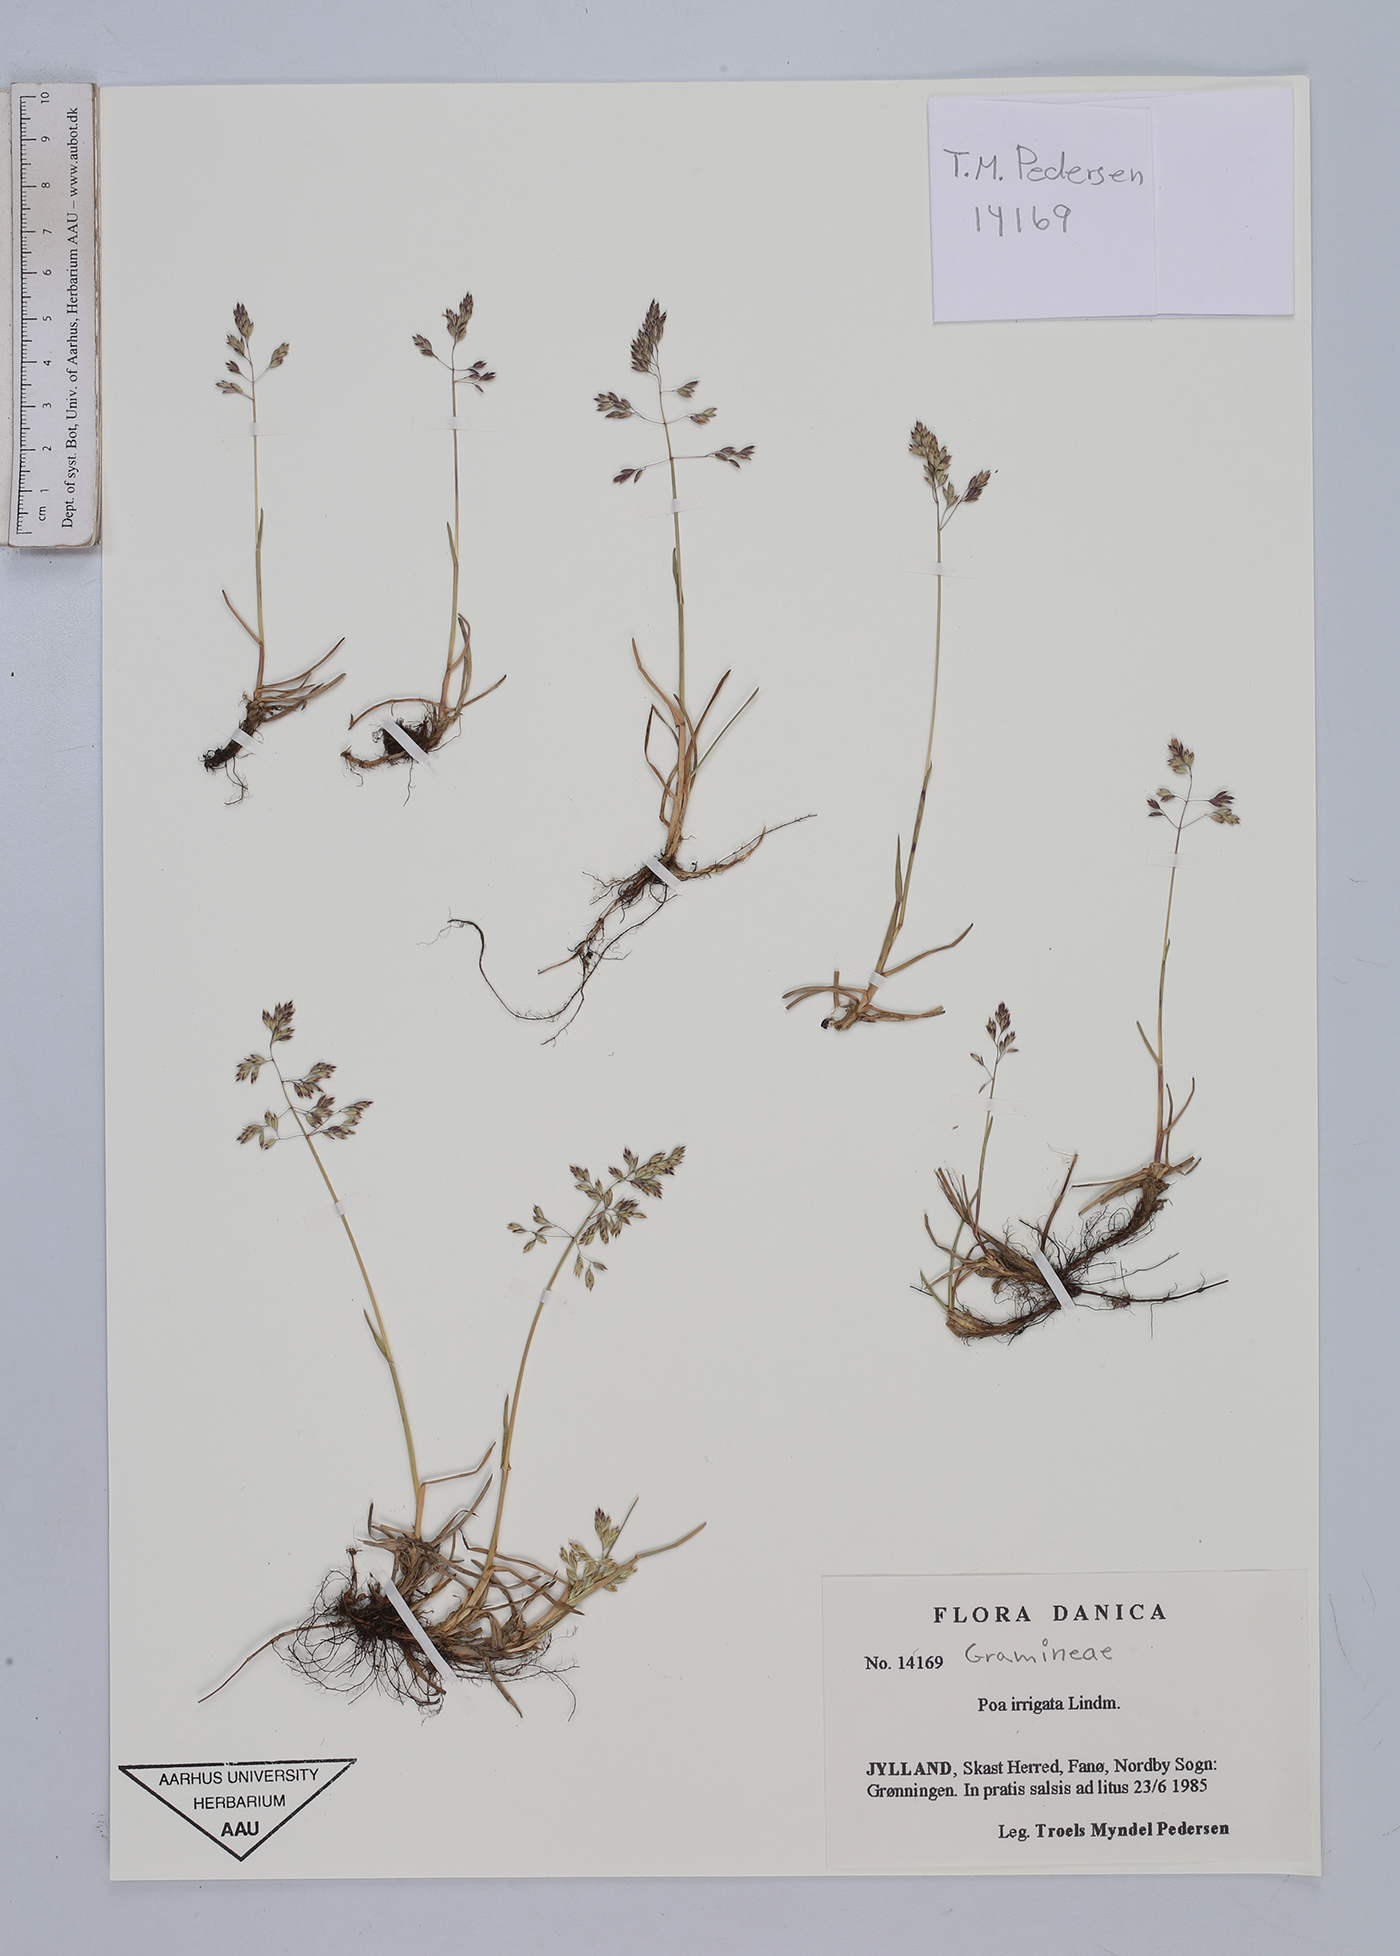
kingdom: Plantae
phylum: Tracheophyta
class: Liliopsida
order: Poales
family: Poaceae
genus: Poa
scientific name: Poa humilis
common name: Spreading meadow-grass
